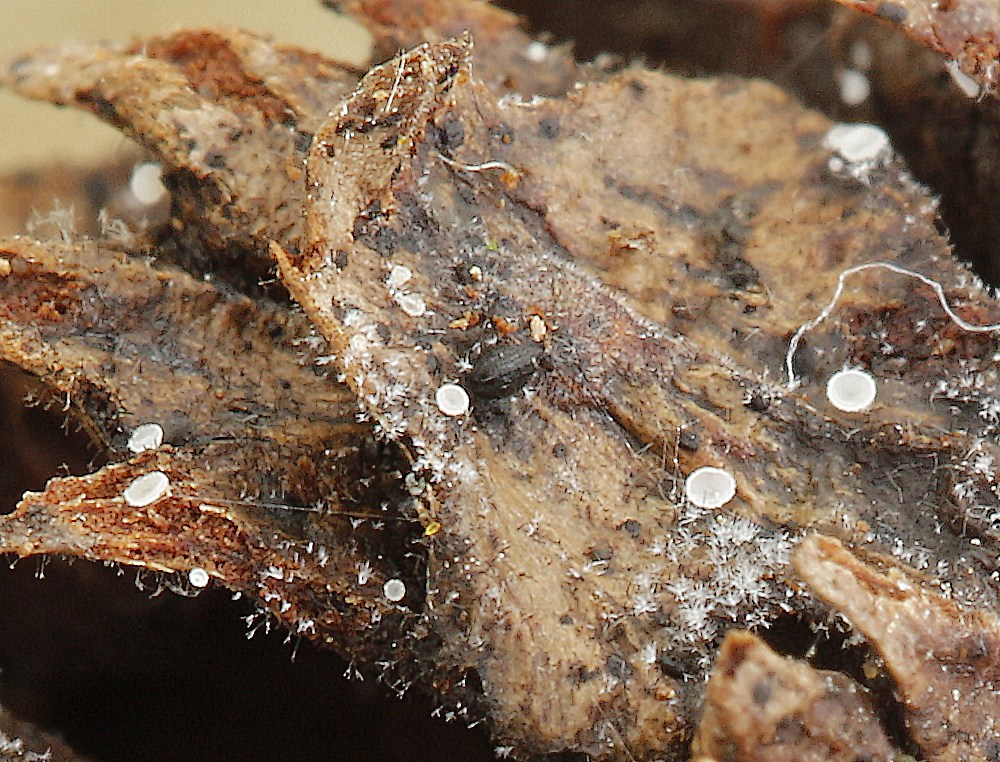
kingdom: Fungi
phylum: Ascomycota
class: Dothideomycetes
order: Mytilinidiales
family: Mytilinidiaceae
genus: Mytilinidion
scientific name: Mytilinidion rhenanum
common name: almindelig kulmusling
